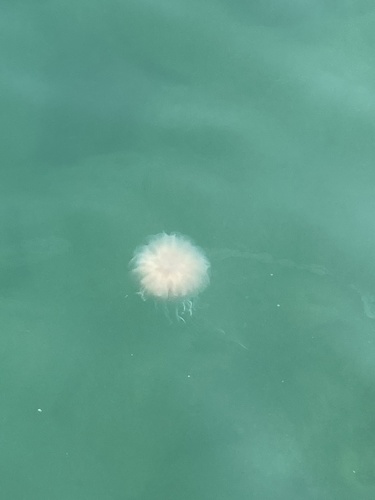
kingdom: Animalia
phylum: Cnidaria
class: Scyphozoa
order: Semaeostomeae
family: Cyaneidae
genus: Cyanea
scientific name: Cyanea nozakii
